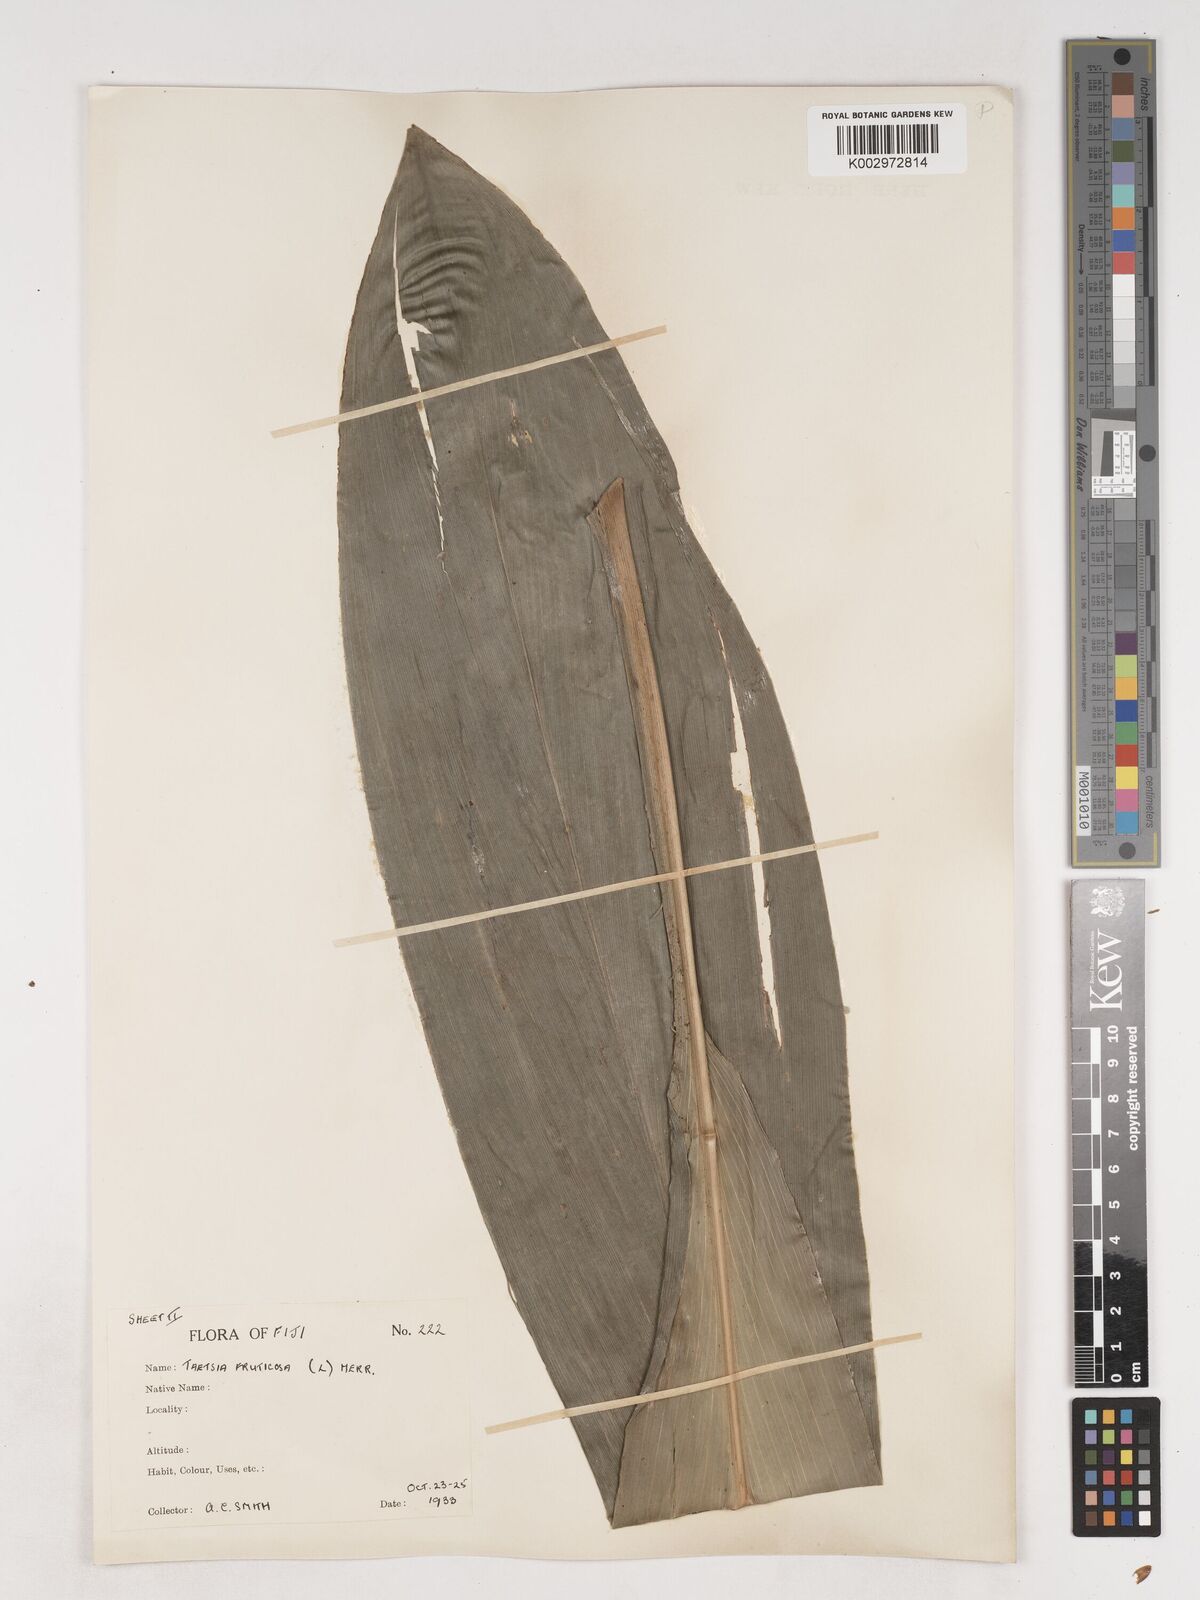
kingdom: Plantae
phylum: Tracheophyta
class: Liliopsida
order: Asparagales
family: Asparagaceae
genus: Cordyline
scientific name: Cordyline fruticosa
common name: Good-luck-plant
